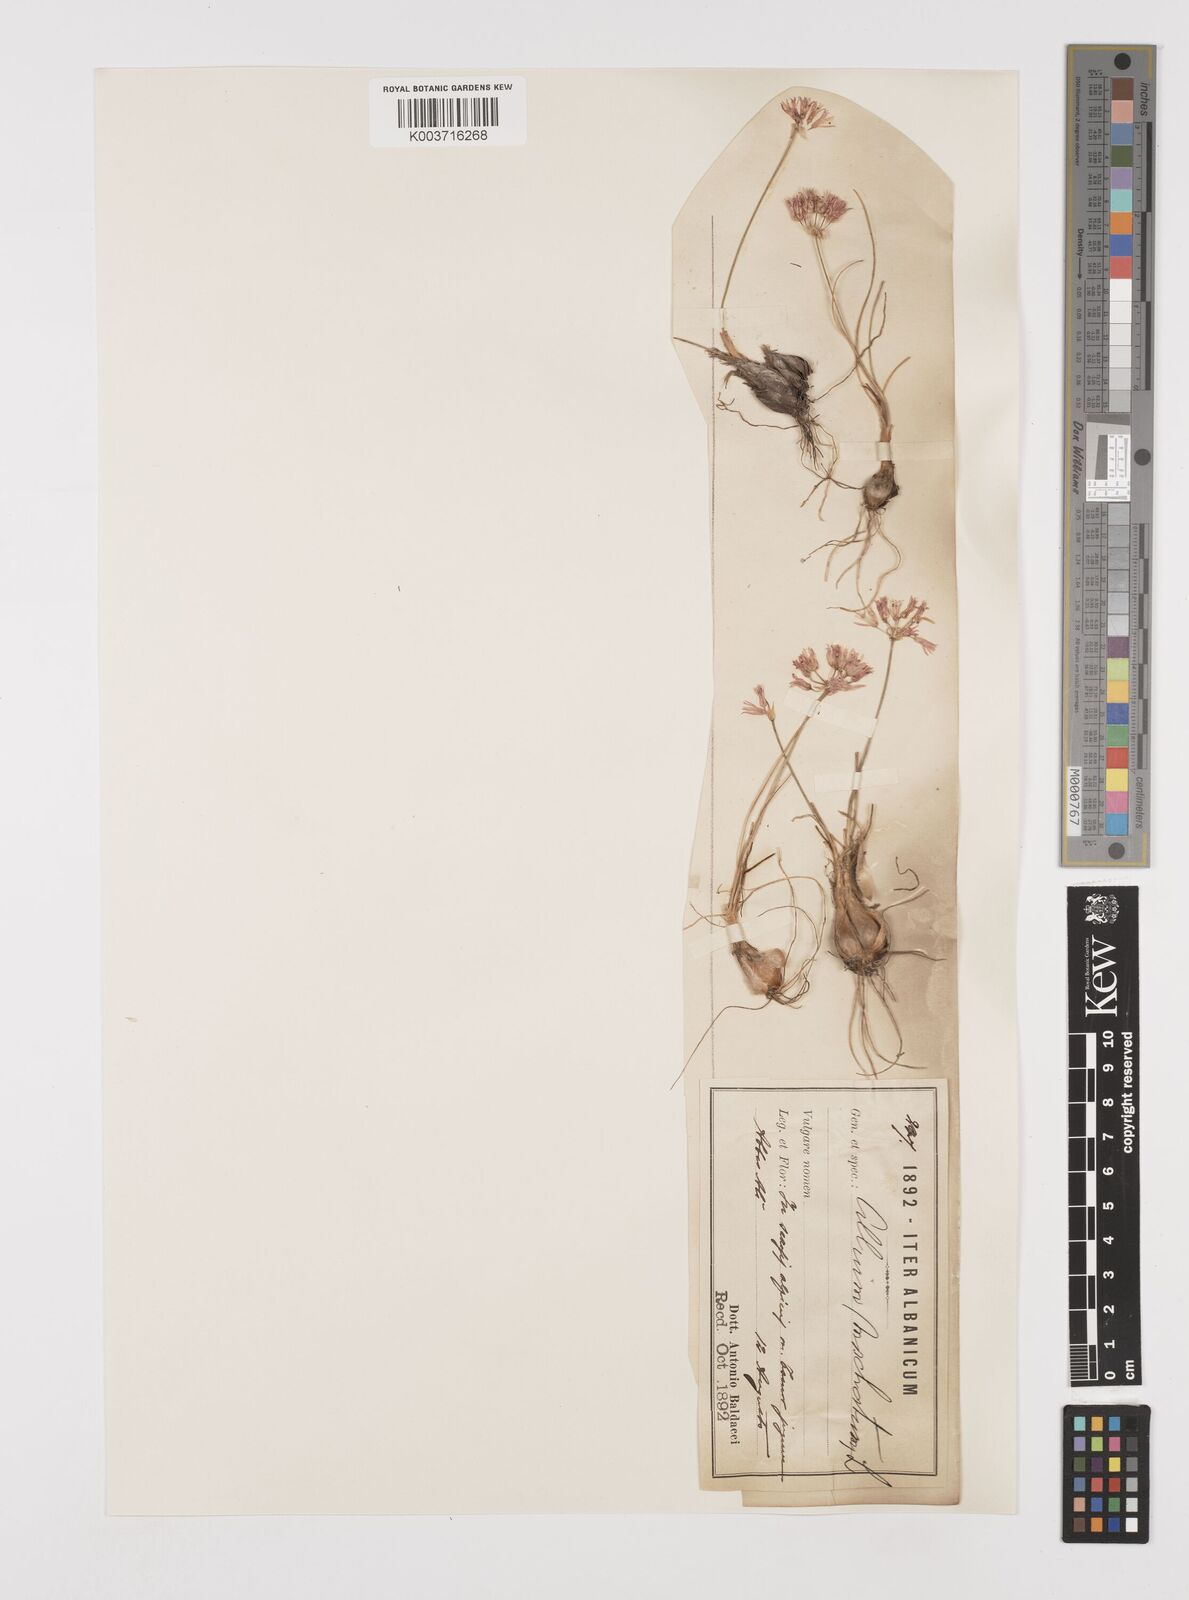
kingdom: Plantae
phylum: Tracheophyta
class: Liliopsida
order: Asparagales
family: Amaryllidaceae
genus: Allium
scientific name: Allium moschatum
